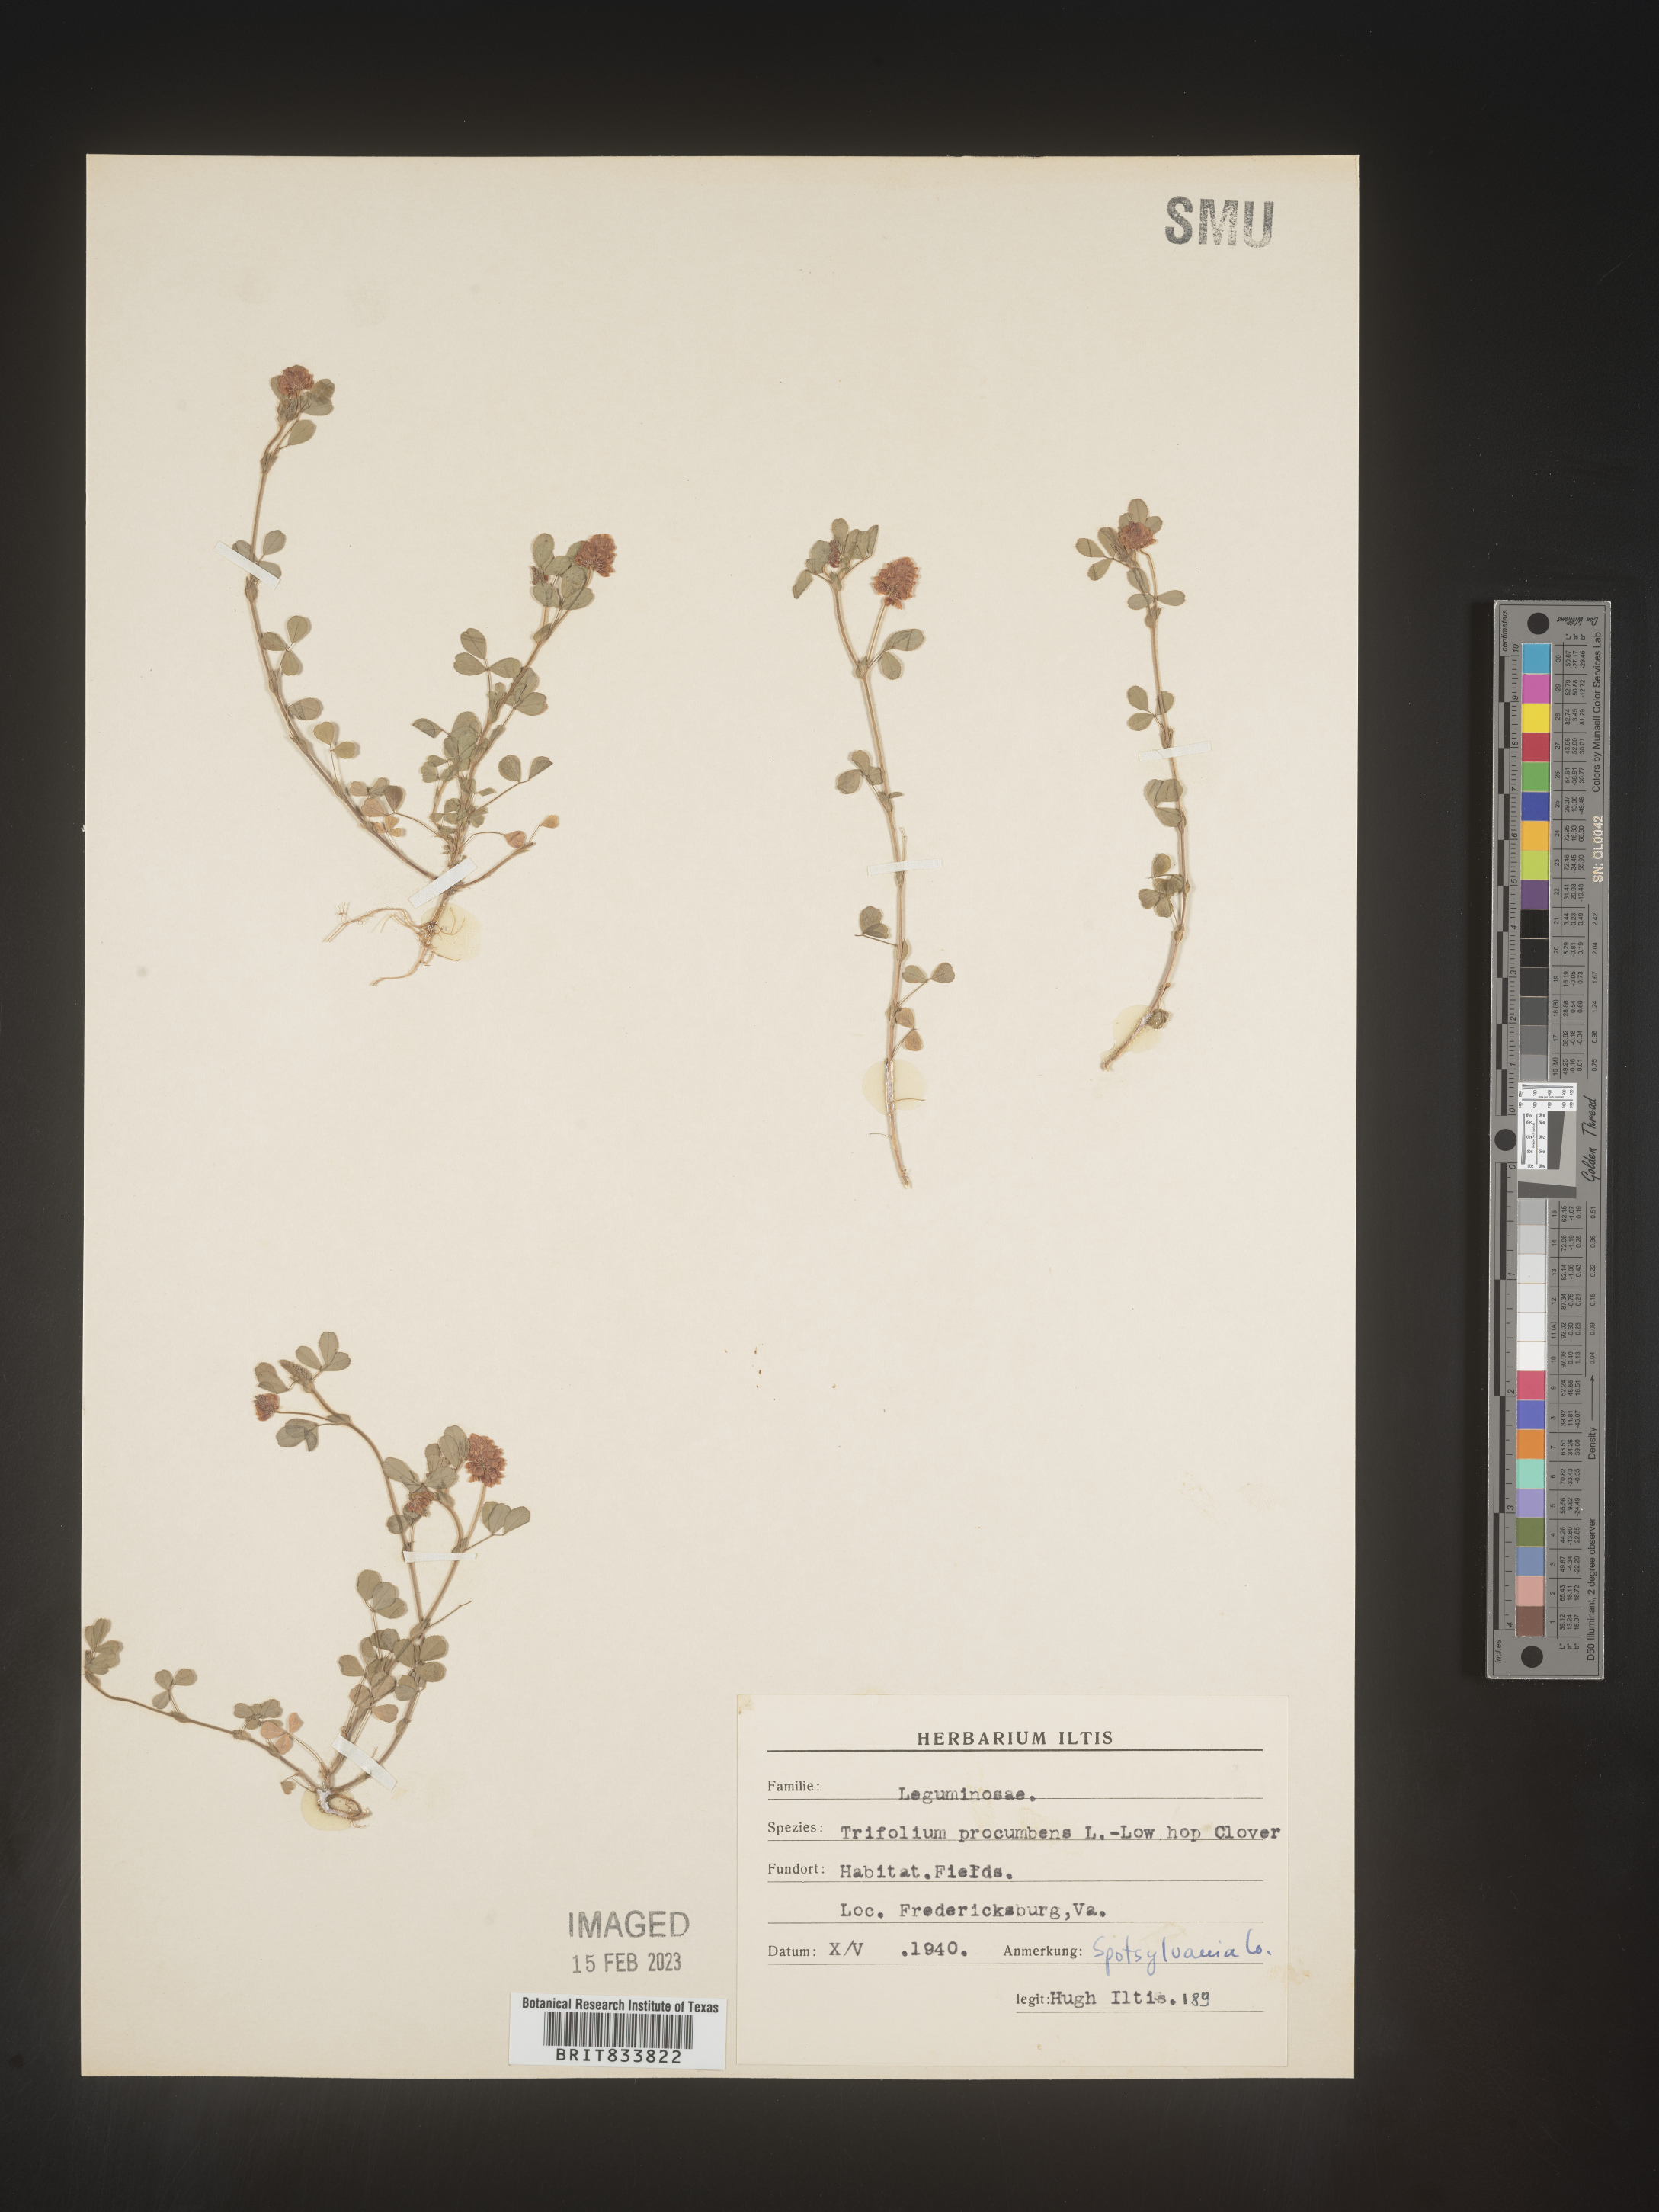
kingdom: Plantae
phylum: Tracheophyta
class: Magnoliopsida
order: Fabales
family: Fabaceae
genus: Trifolium
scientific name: Trifolium campestre
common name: Field clover
